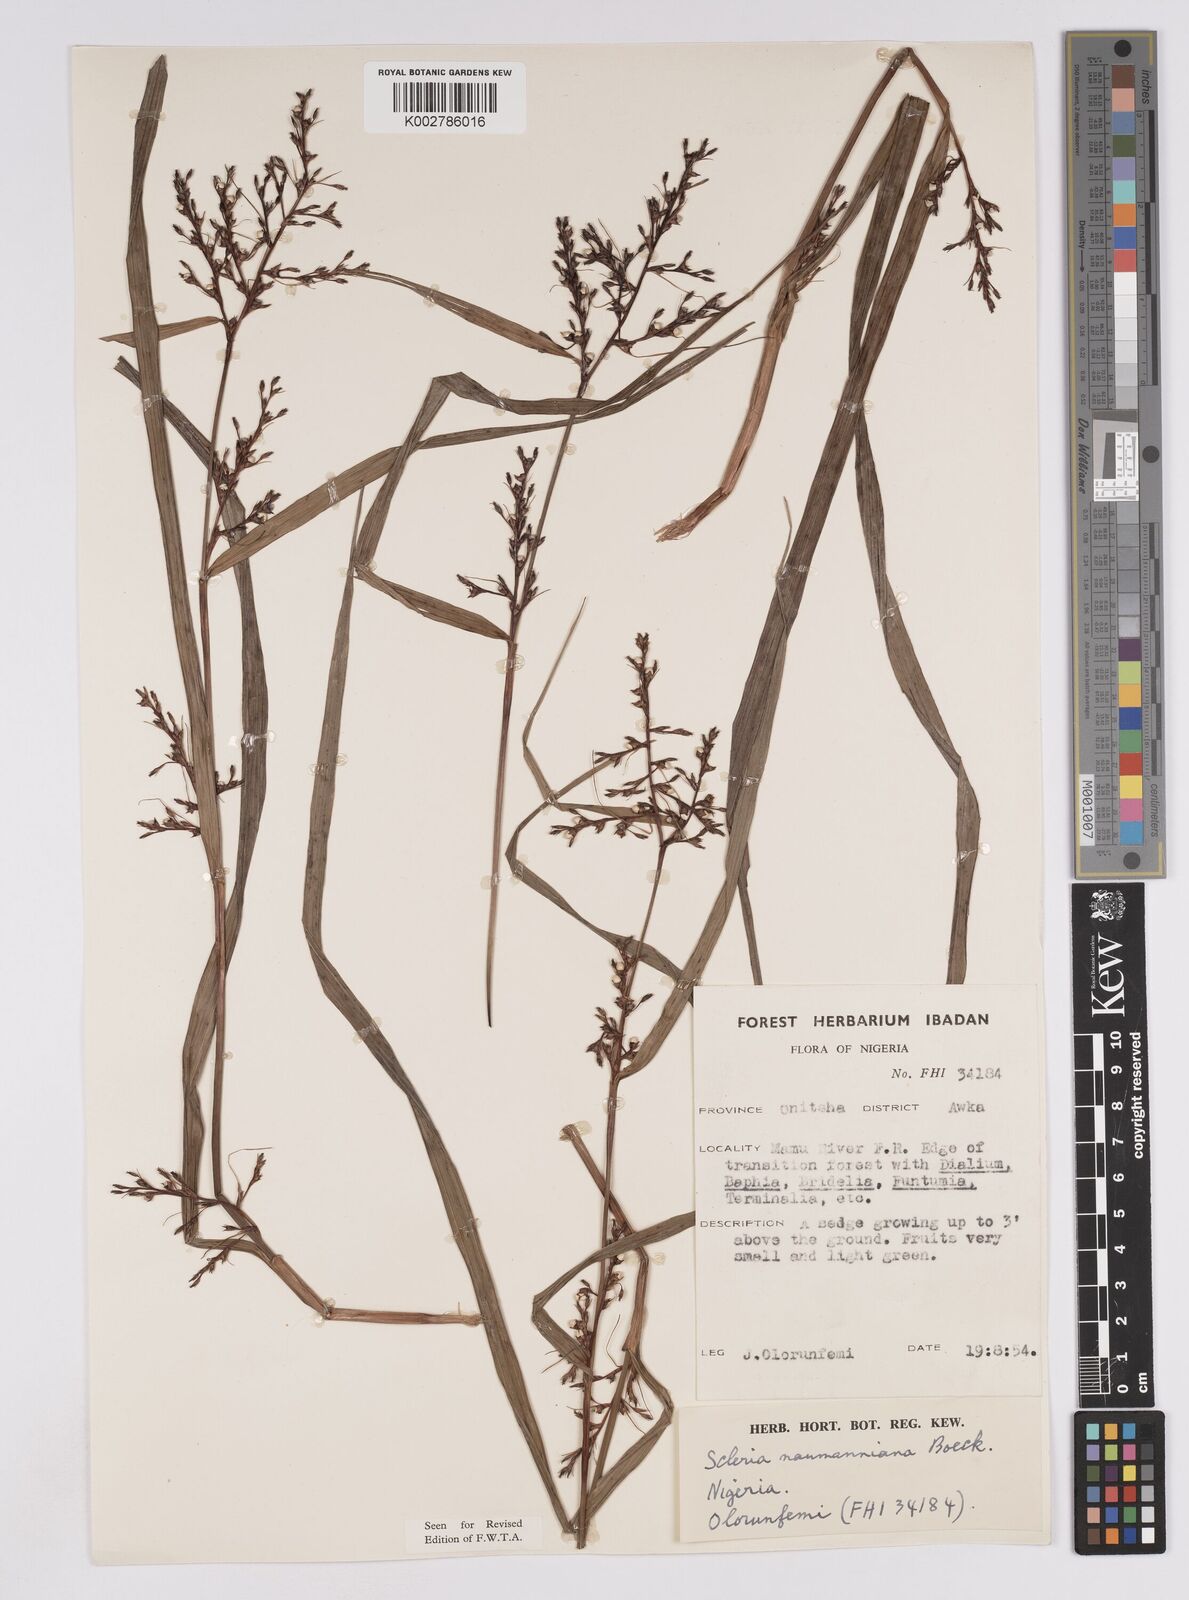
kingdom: Plantae
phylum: Tracheophyta
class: Liliopsida
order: Poales
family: Cyperaceae
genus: Scleria
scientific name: Scleria naumanniana
